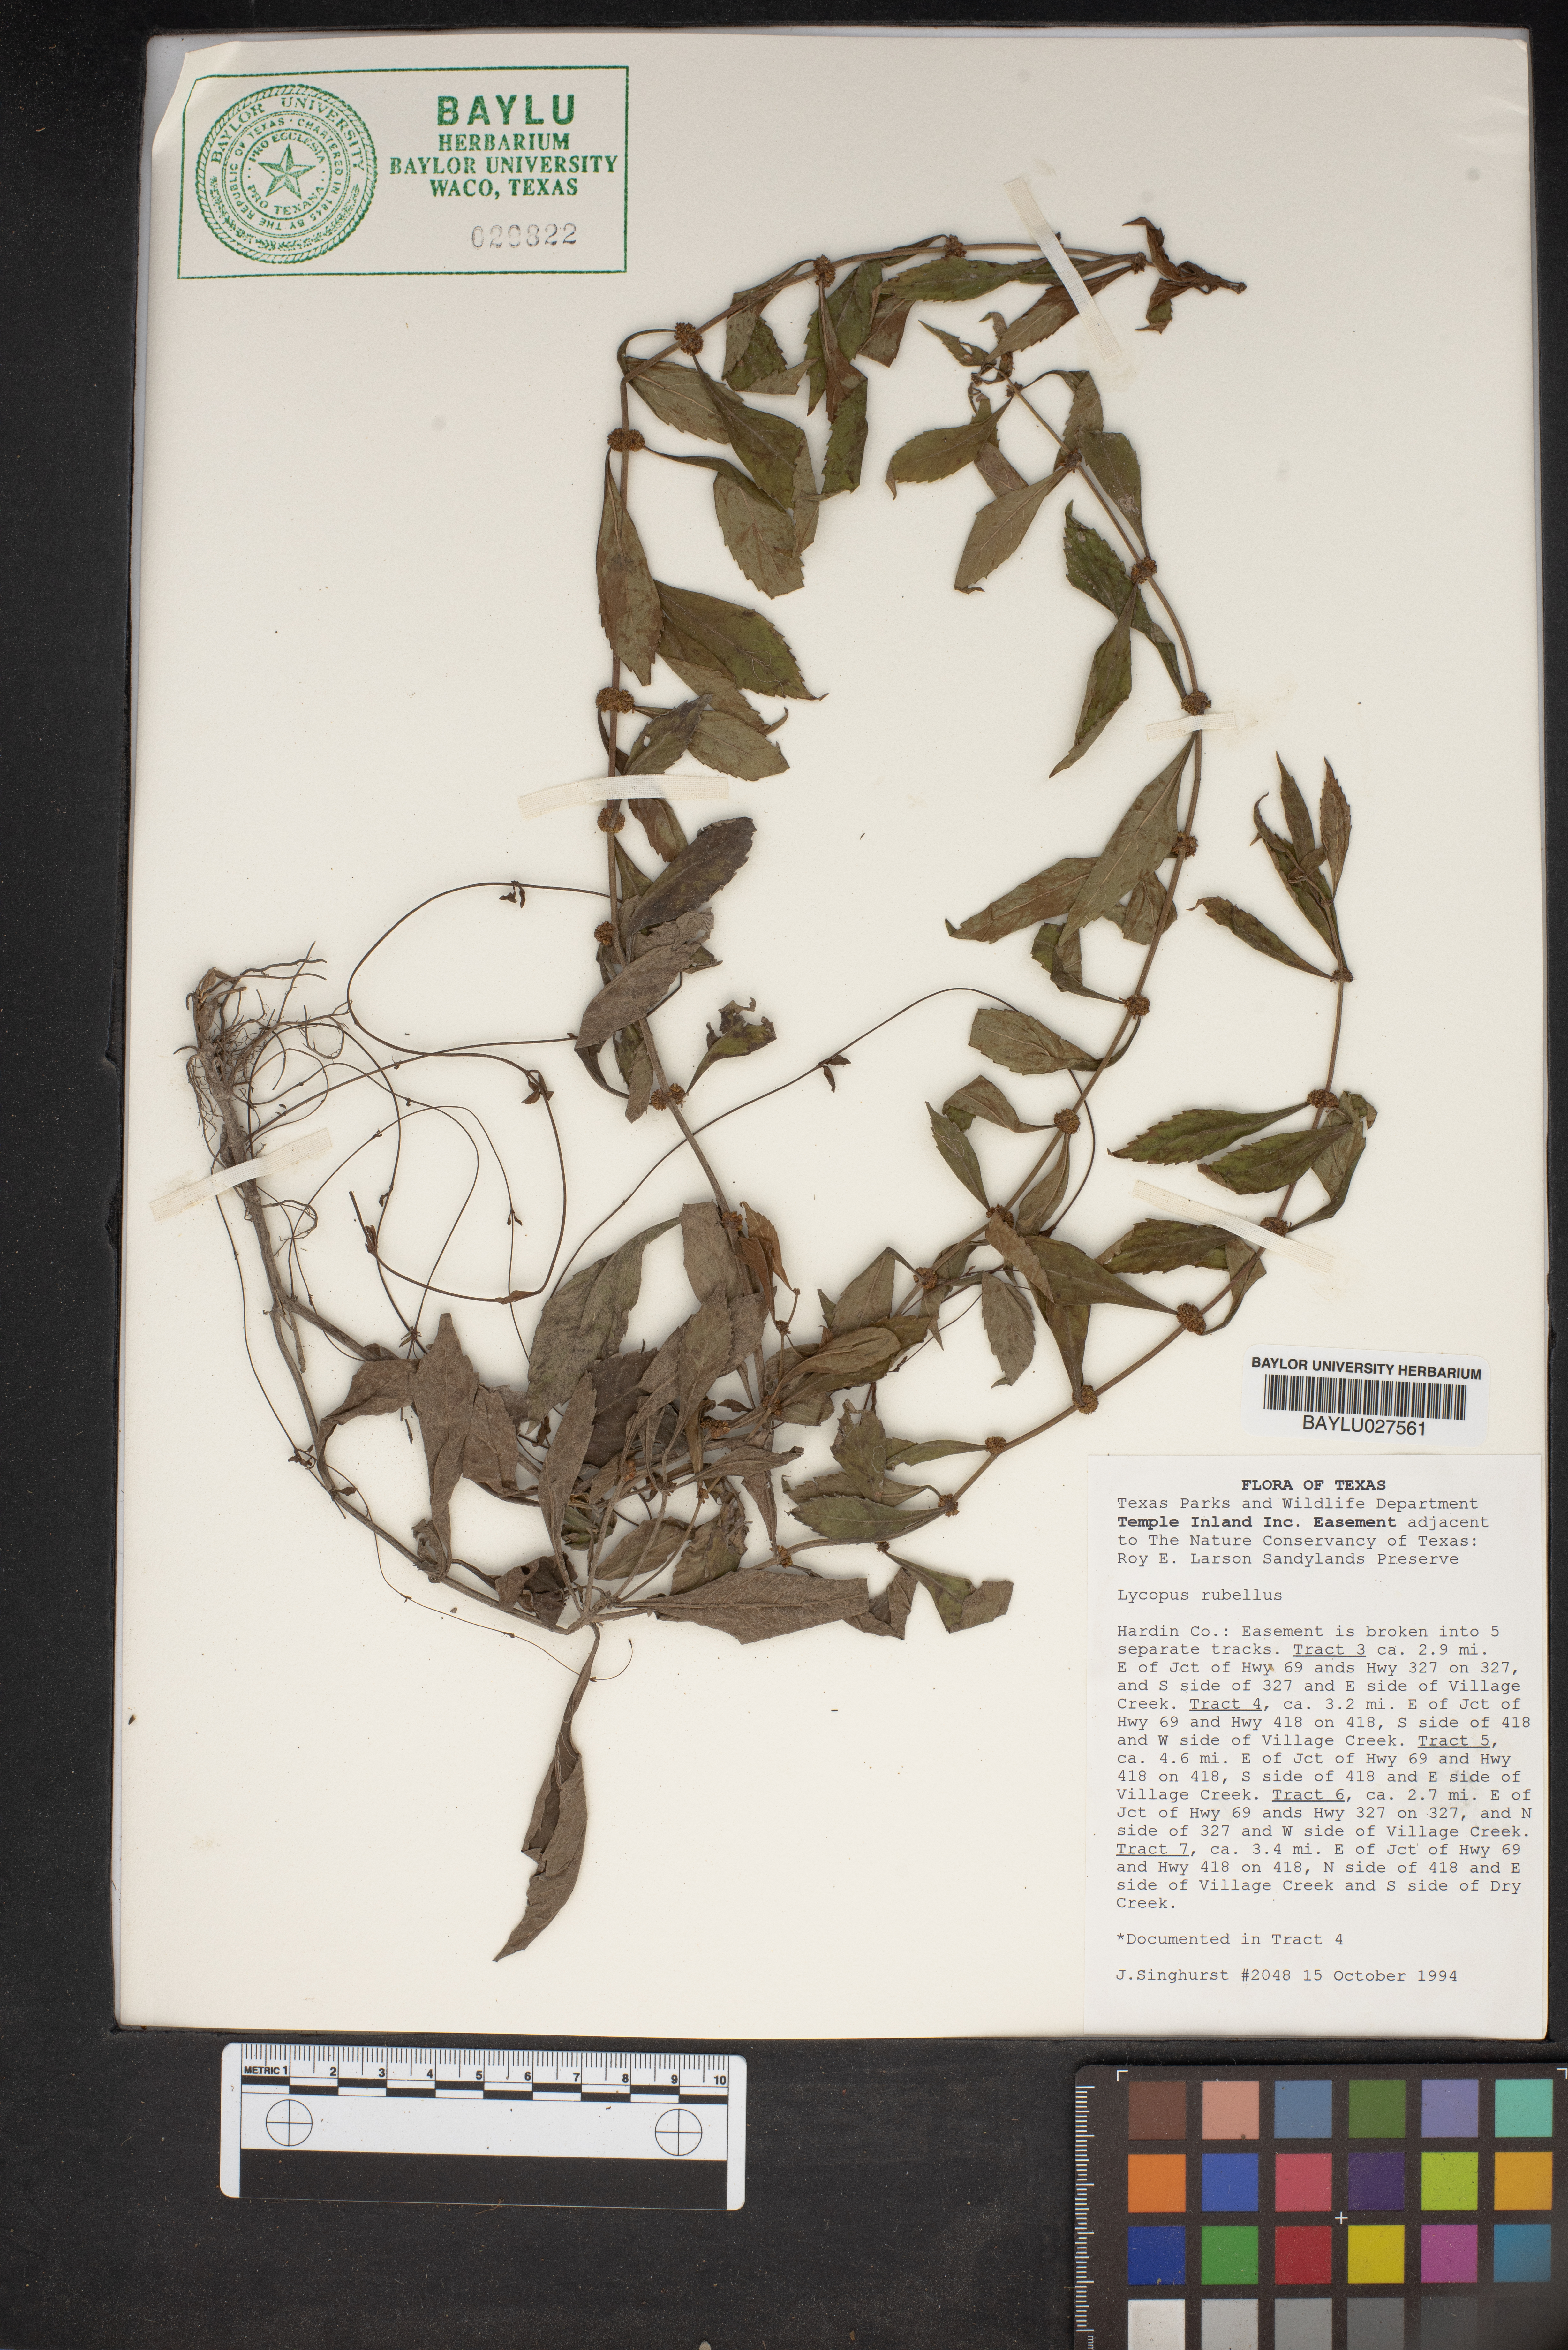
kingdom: Plantae
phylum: Tracheophyta
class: Magnoliopsida
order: Lamiales
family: Lamiaceae
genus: Lycopus
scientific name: Lycopus rubellus
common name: Stalked bugleweed
